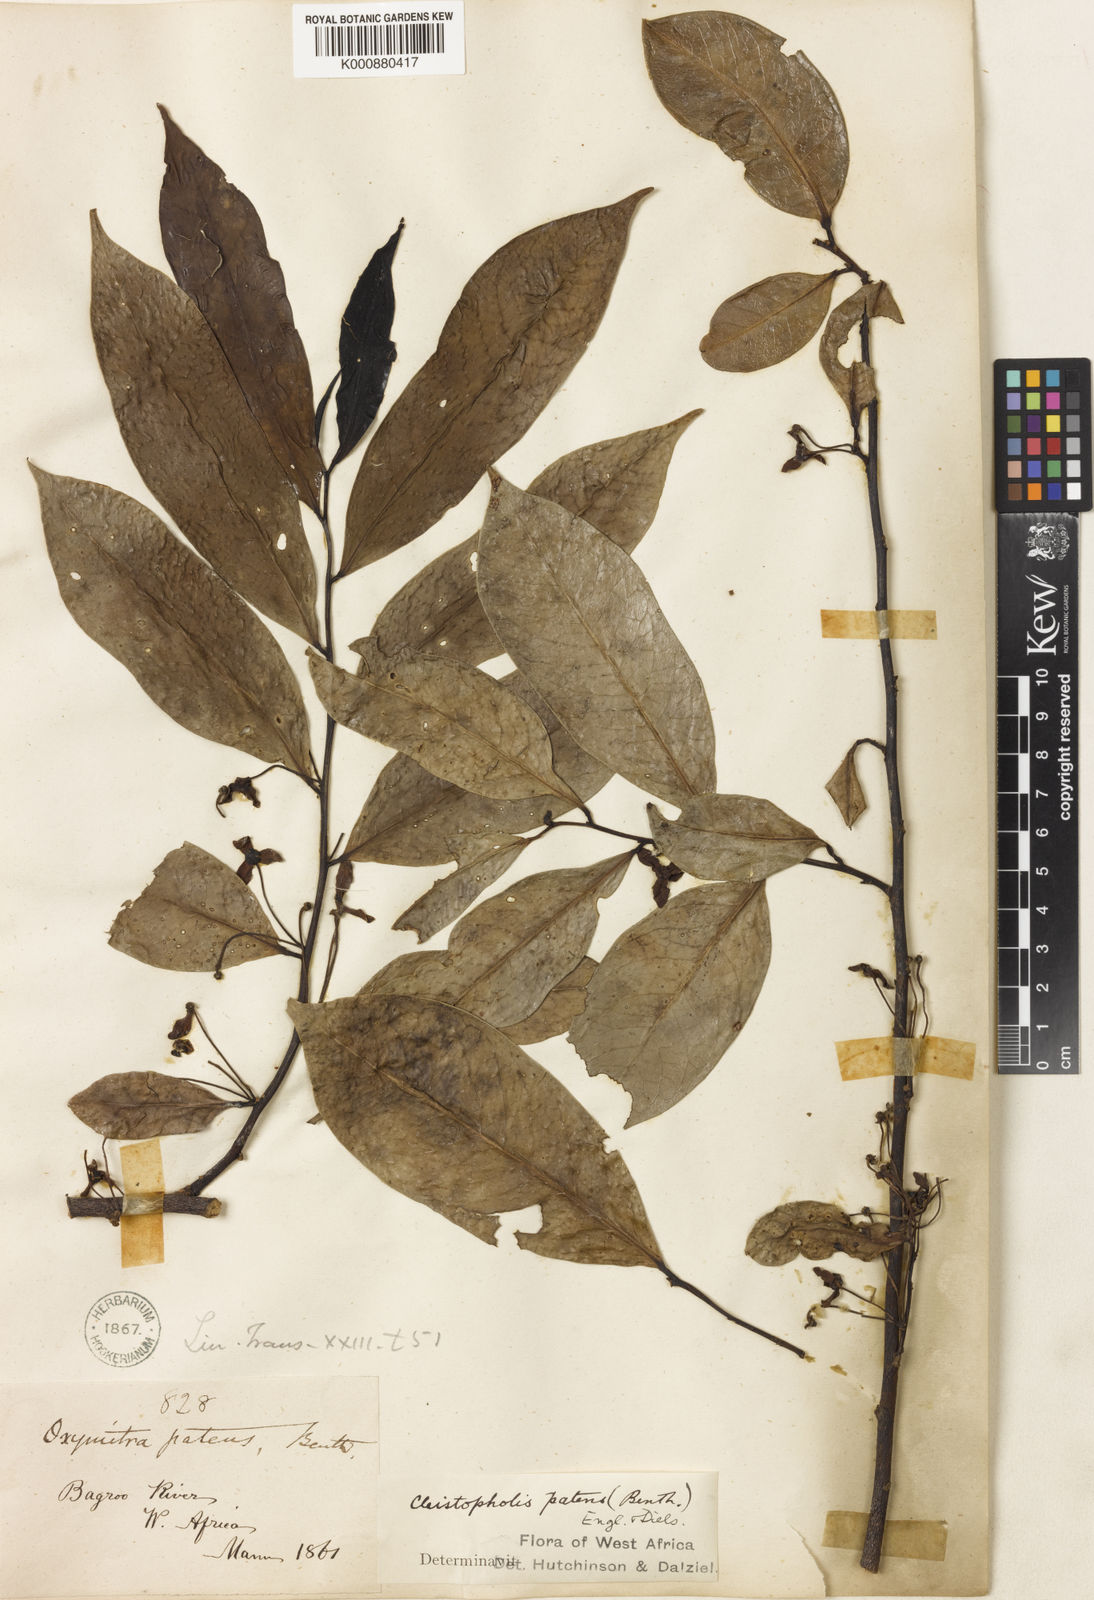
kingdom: Plantae
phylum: Tracheophyta
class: Magnoliopsida
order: Magnoliales
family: Annonaceae
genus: Cleistopholis
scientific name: Cleistopholis patens
